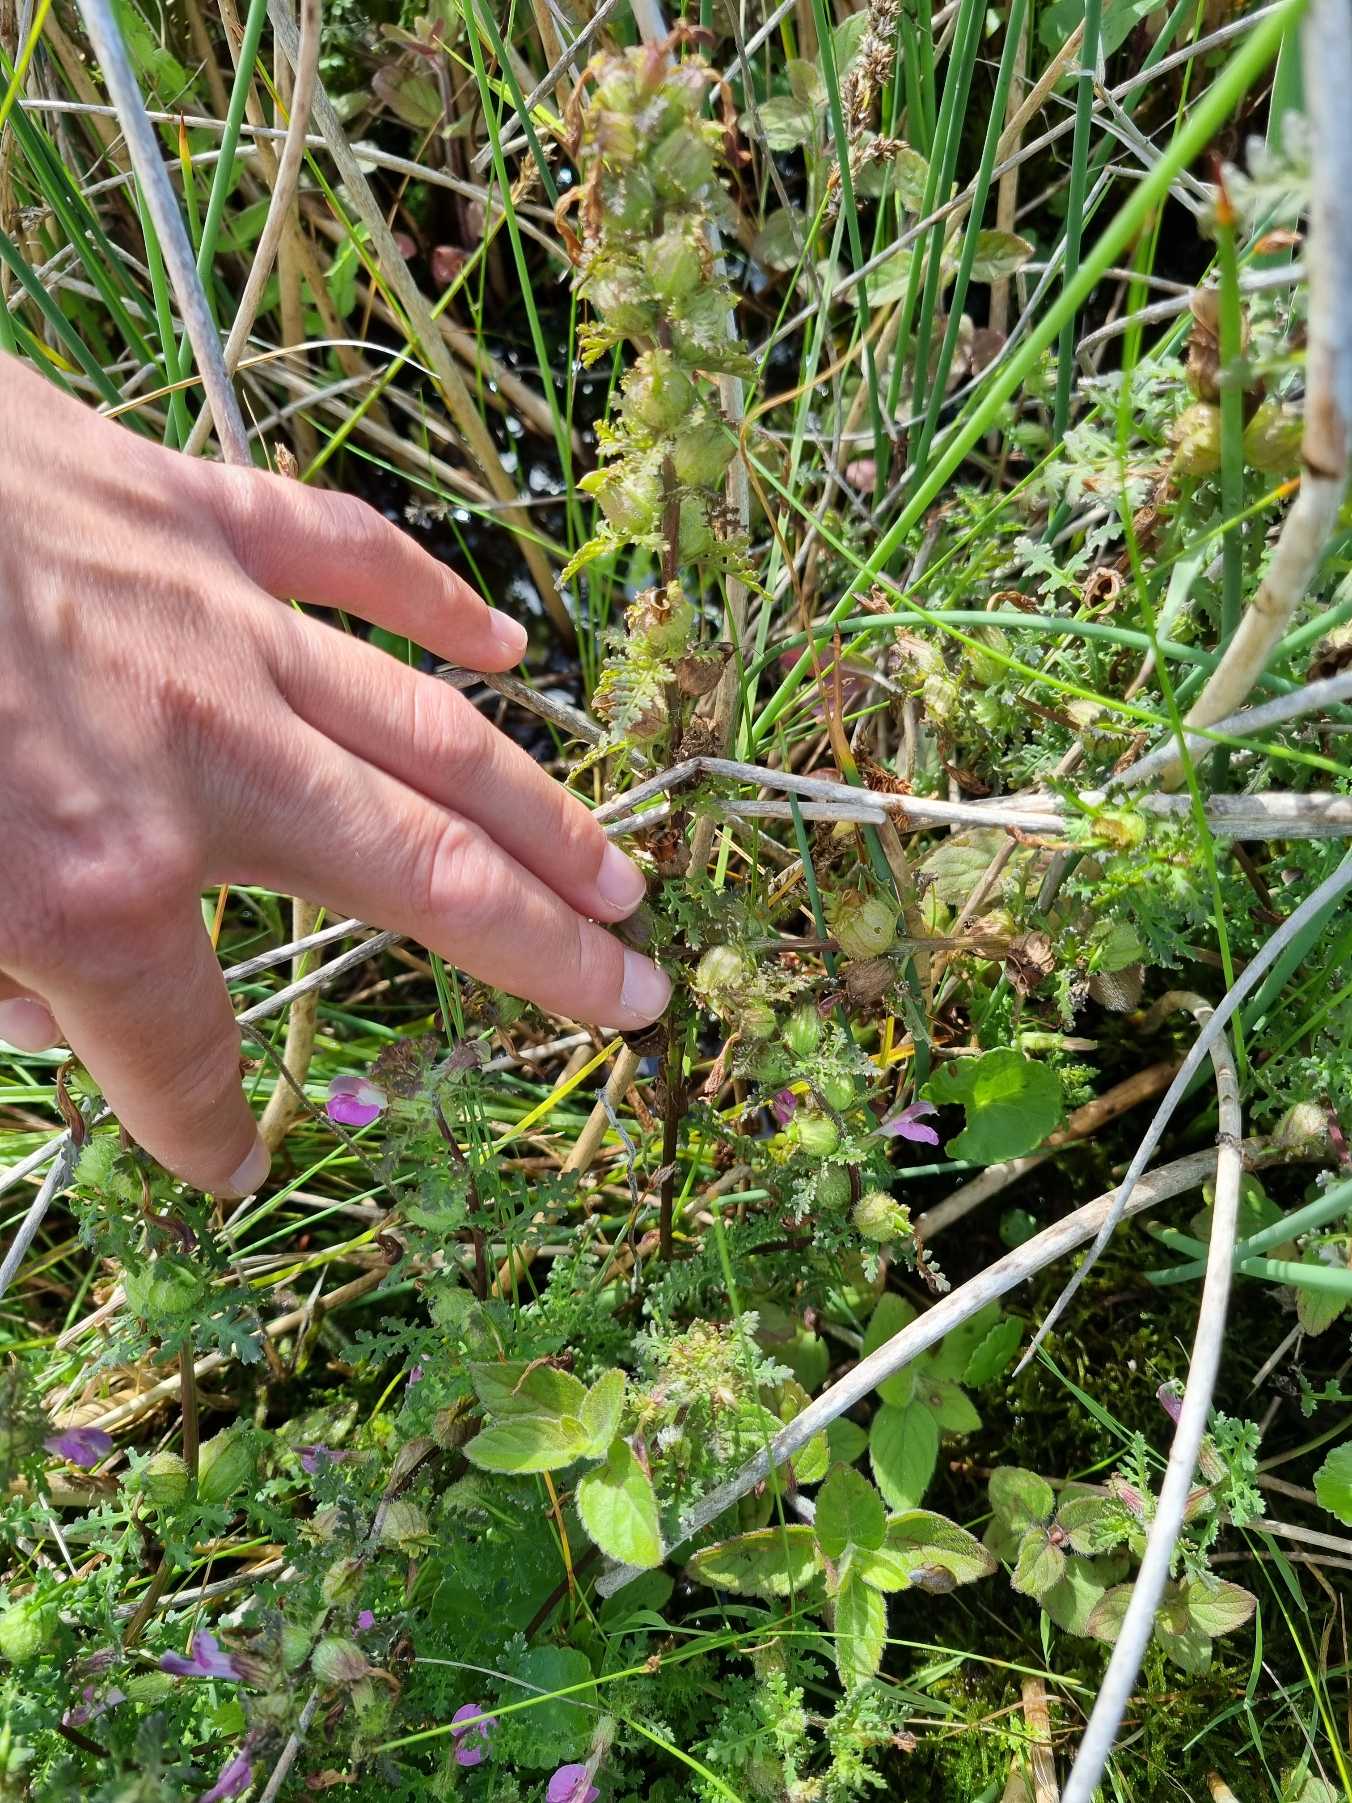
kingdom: Plantae
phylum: Tracheophyta
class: Magnoliopsida
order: Lamiales
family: Orobanchaceae
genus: Pedicularis
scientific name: Pedicularis palustris
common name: Eng-troldurt
